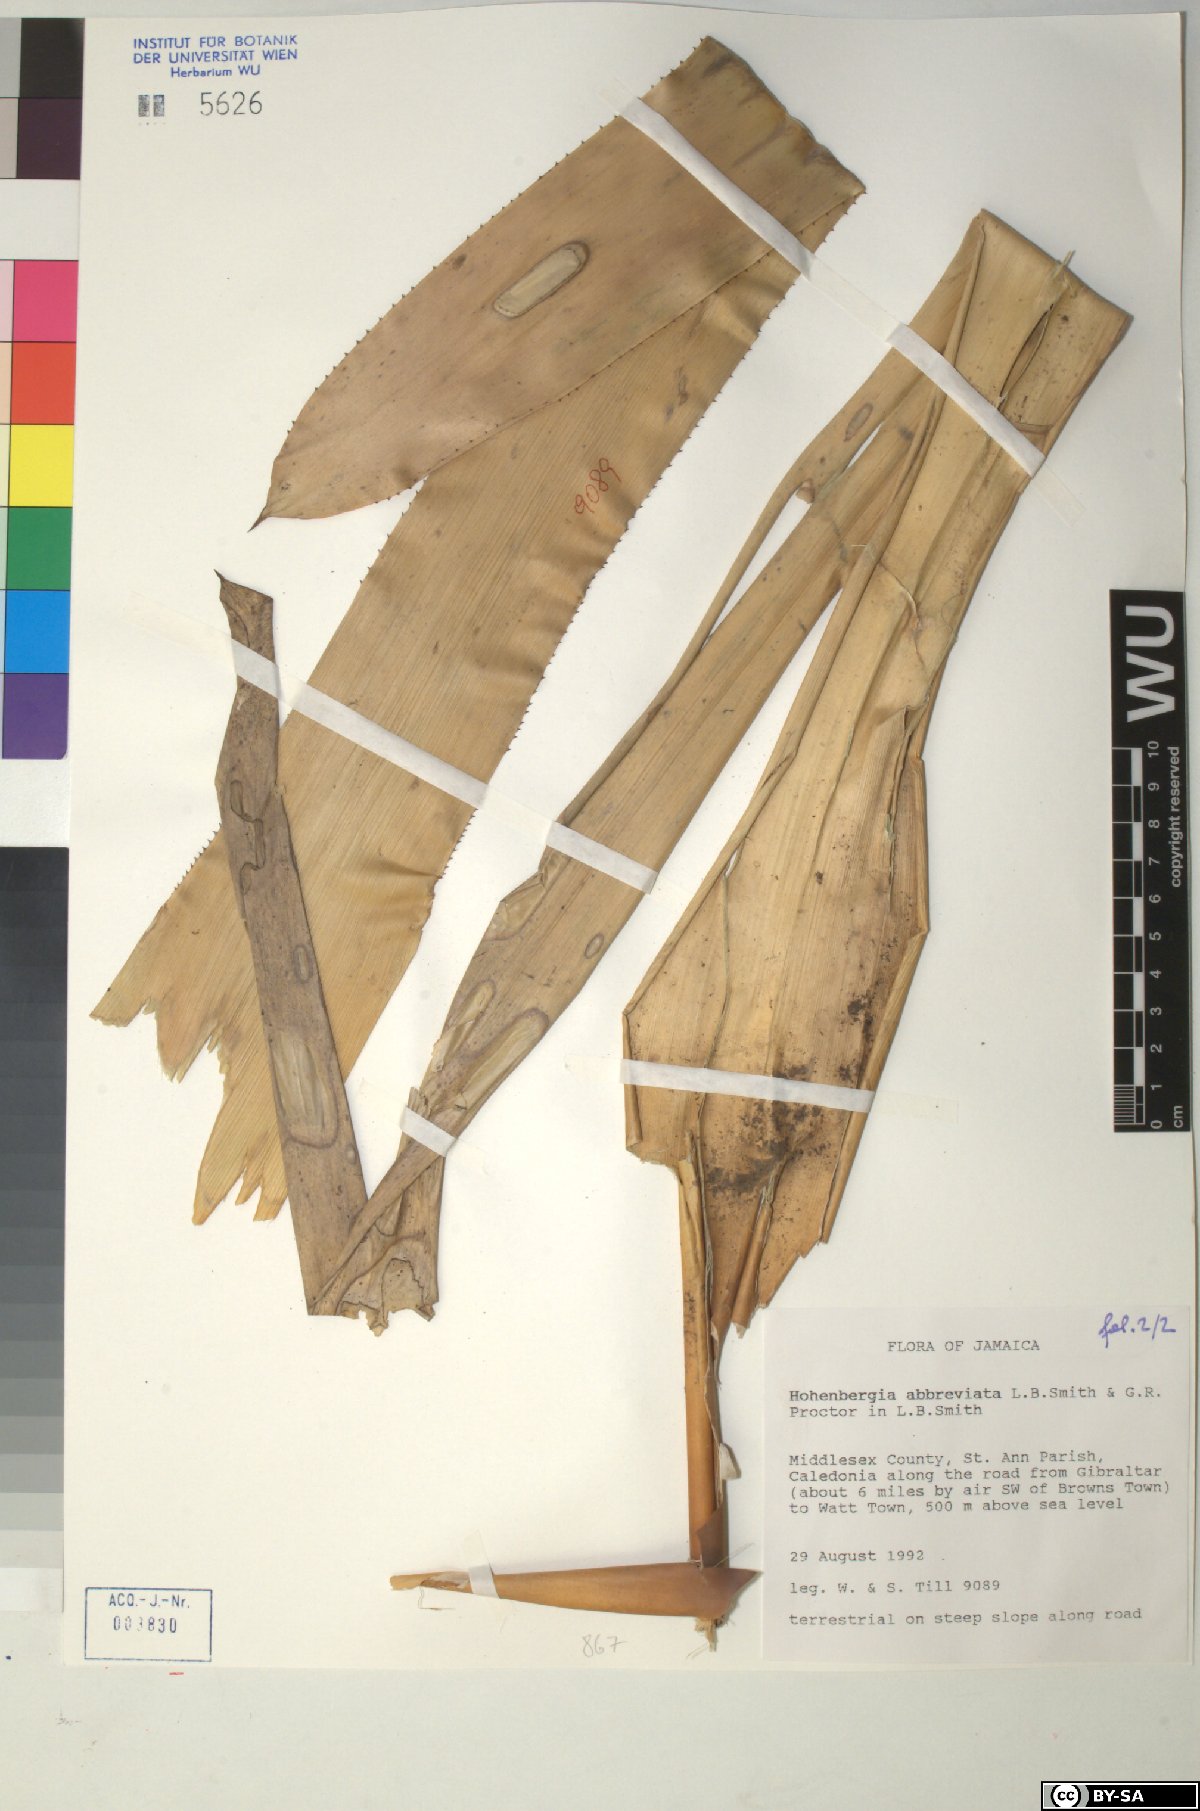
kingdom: Plantae
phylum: Tracheophyta
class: Liliopsida
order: Poales
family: Bromeliaceae
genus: Wittmackia
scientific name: Wittmackia abbreviata
